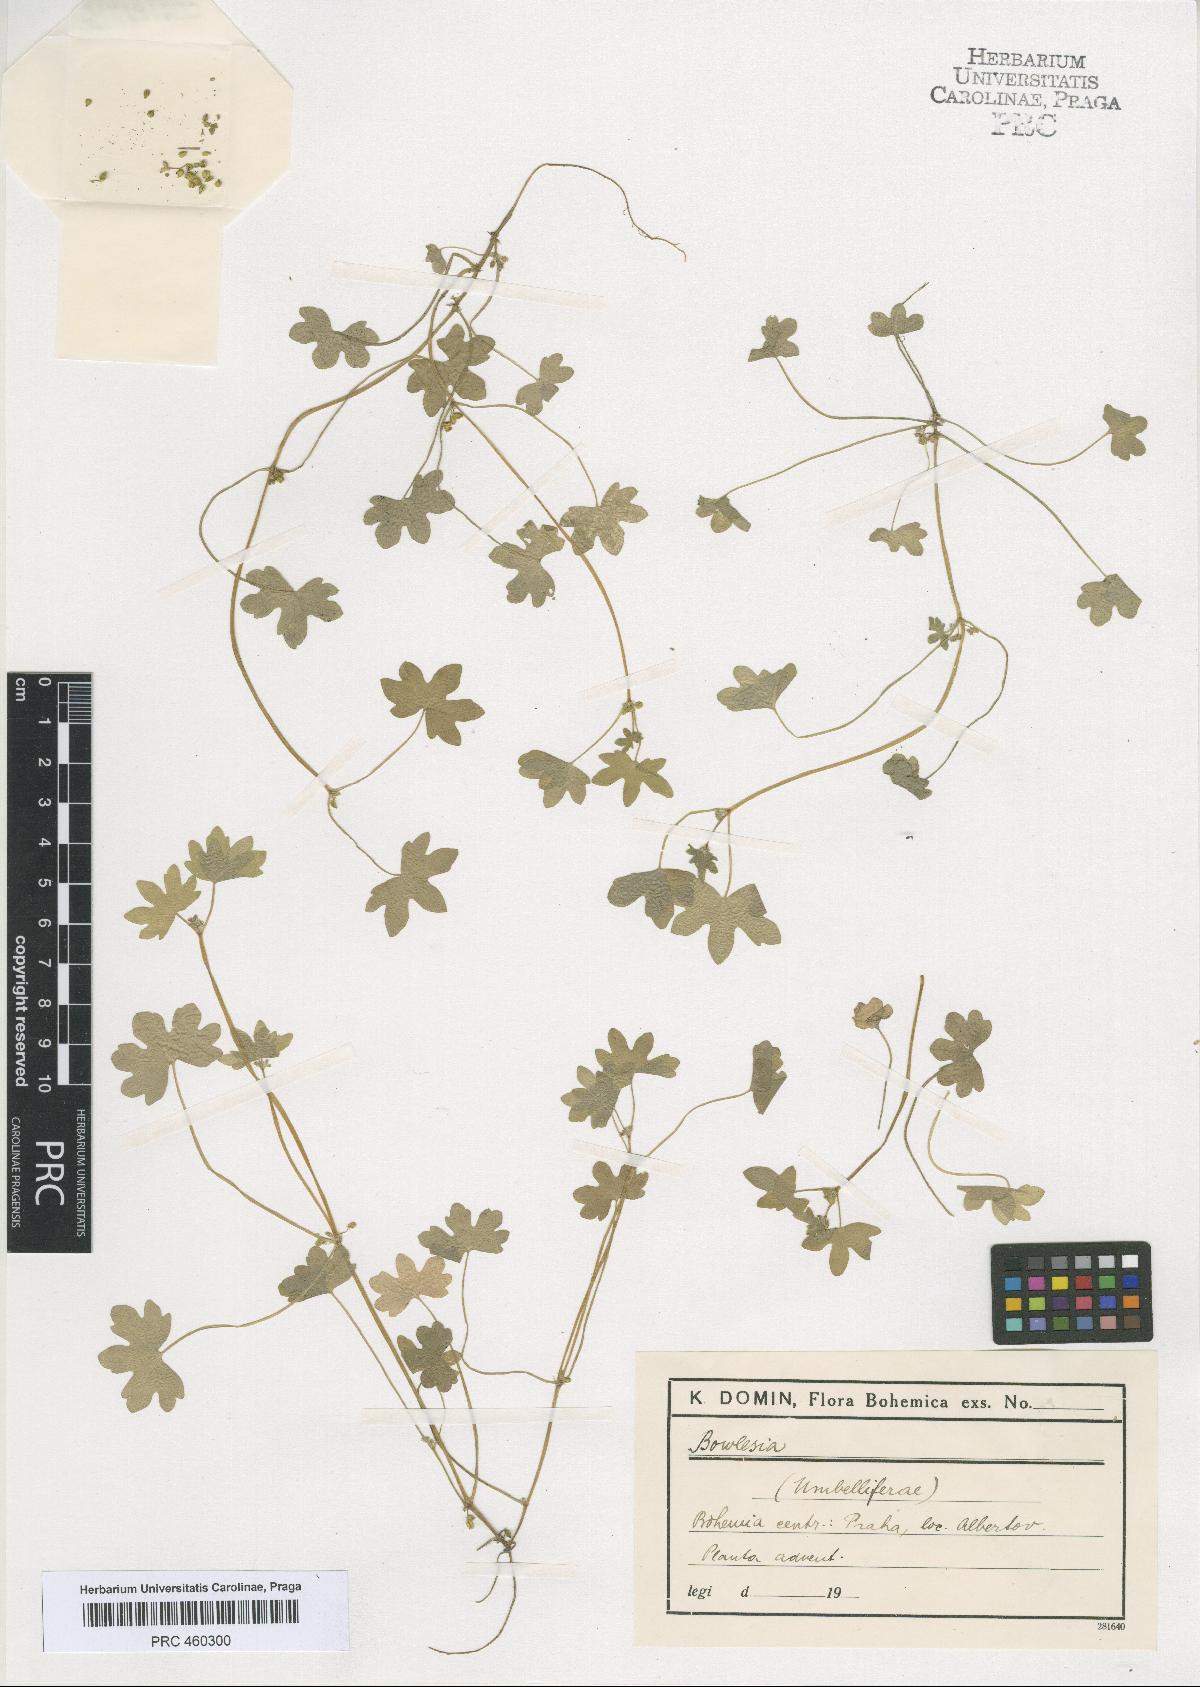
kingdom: Plantae
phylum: Tracheophyta
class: Magnoliopsida
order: Apiales
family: Apiaceae
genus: Bowlesia
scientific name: Bowlesia
